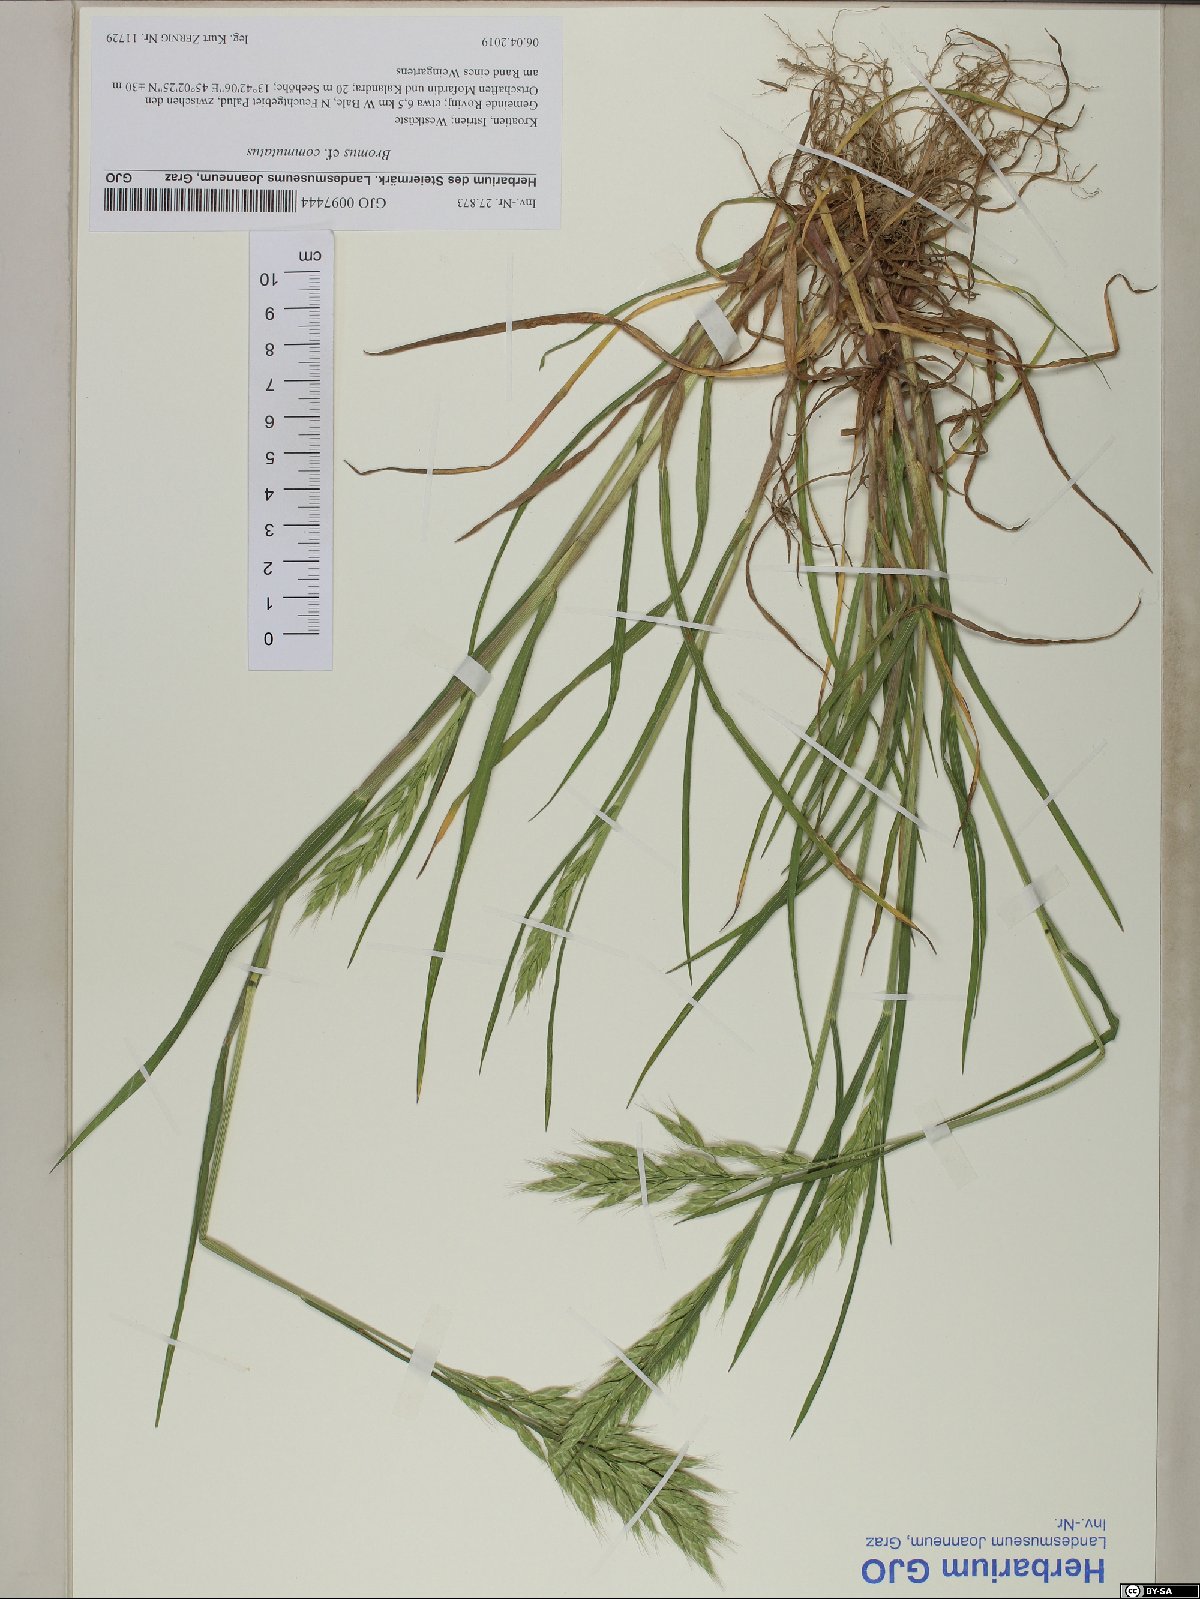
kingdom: Plantae
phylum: Tracheophyta
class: Liliopsida
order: Poales
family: Poaceae
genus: Bromus
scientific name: Bromus hordeaceus
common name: Soft brome
